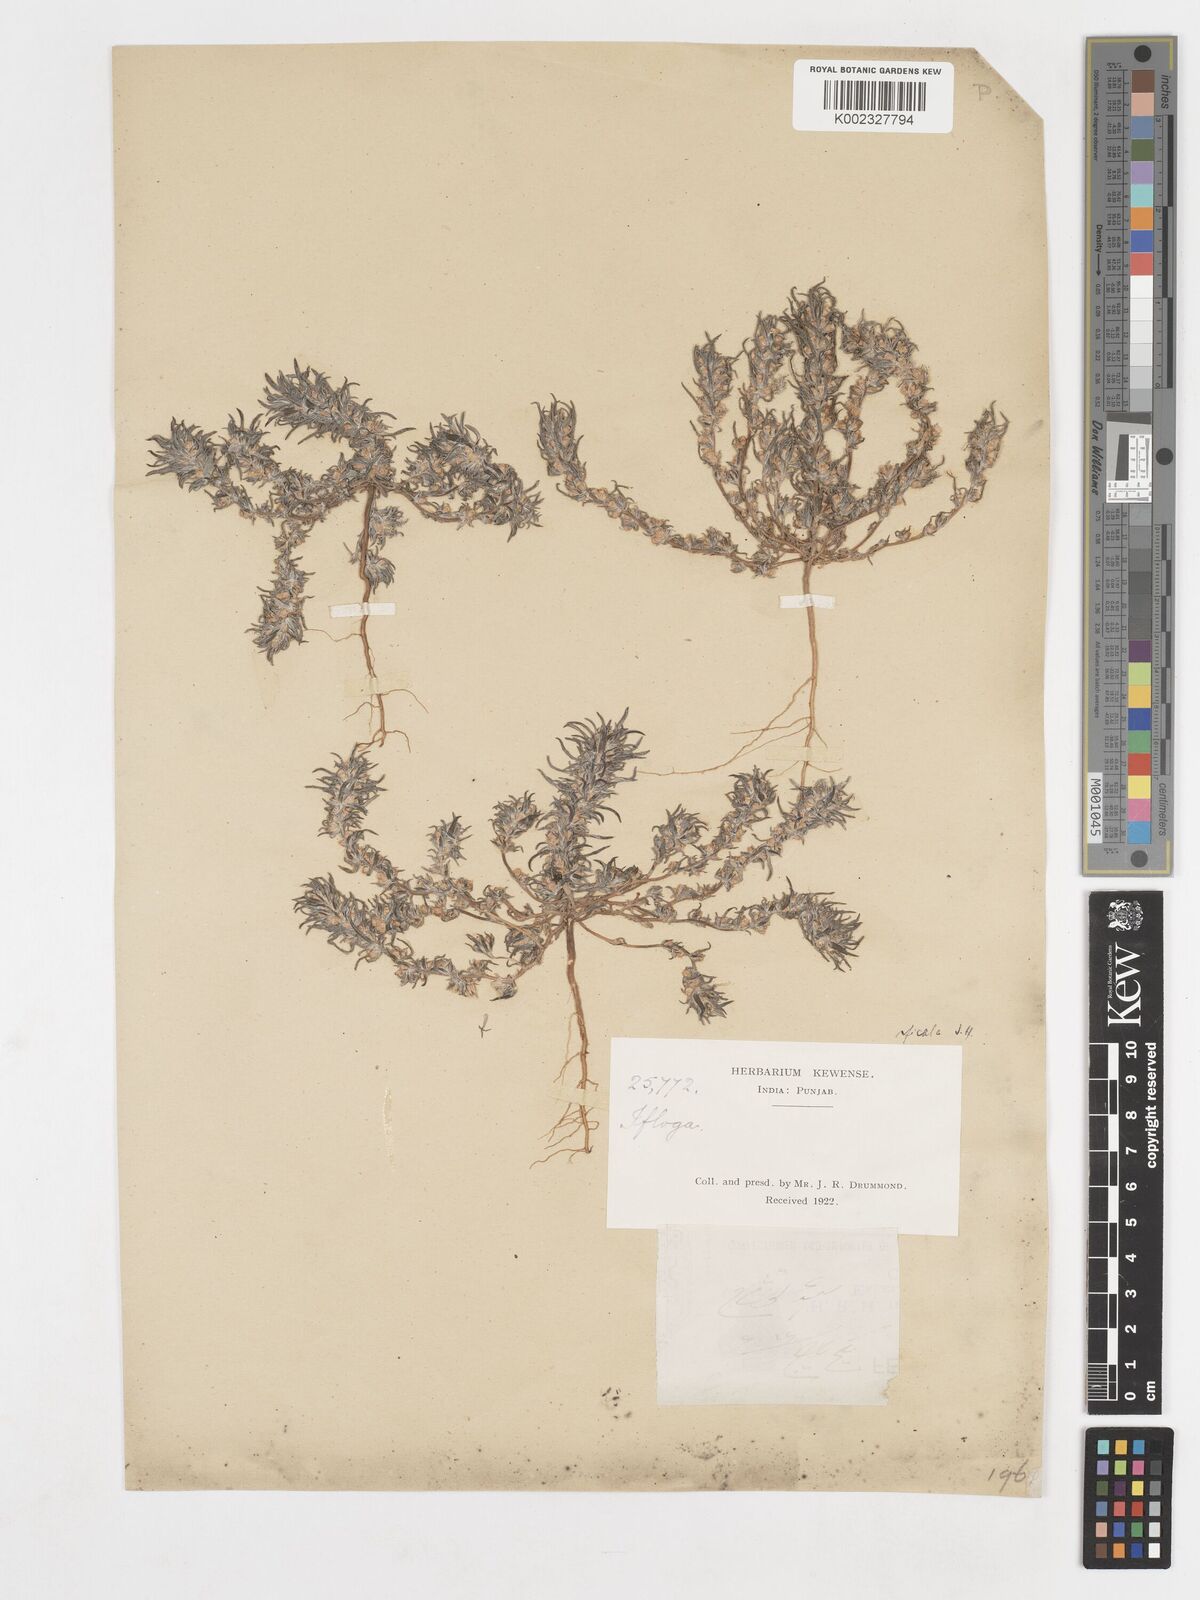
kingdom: Plantae
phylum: Tracheophyta
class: Magnoliopsida
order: Asterales
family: Asteraceae
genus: Ifloga
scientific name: Ifloga spicata
